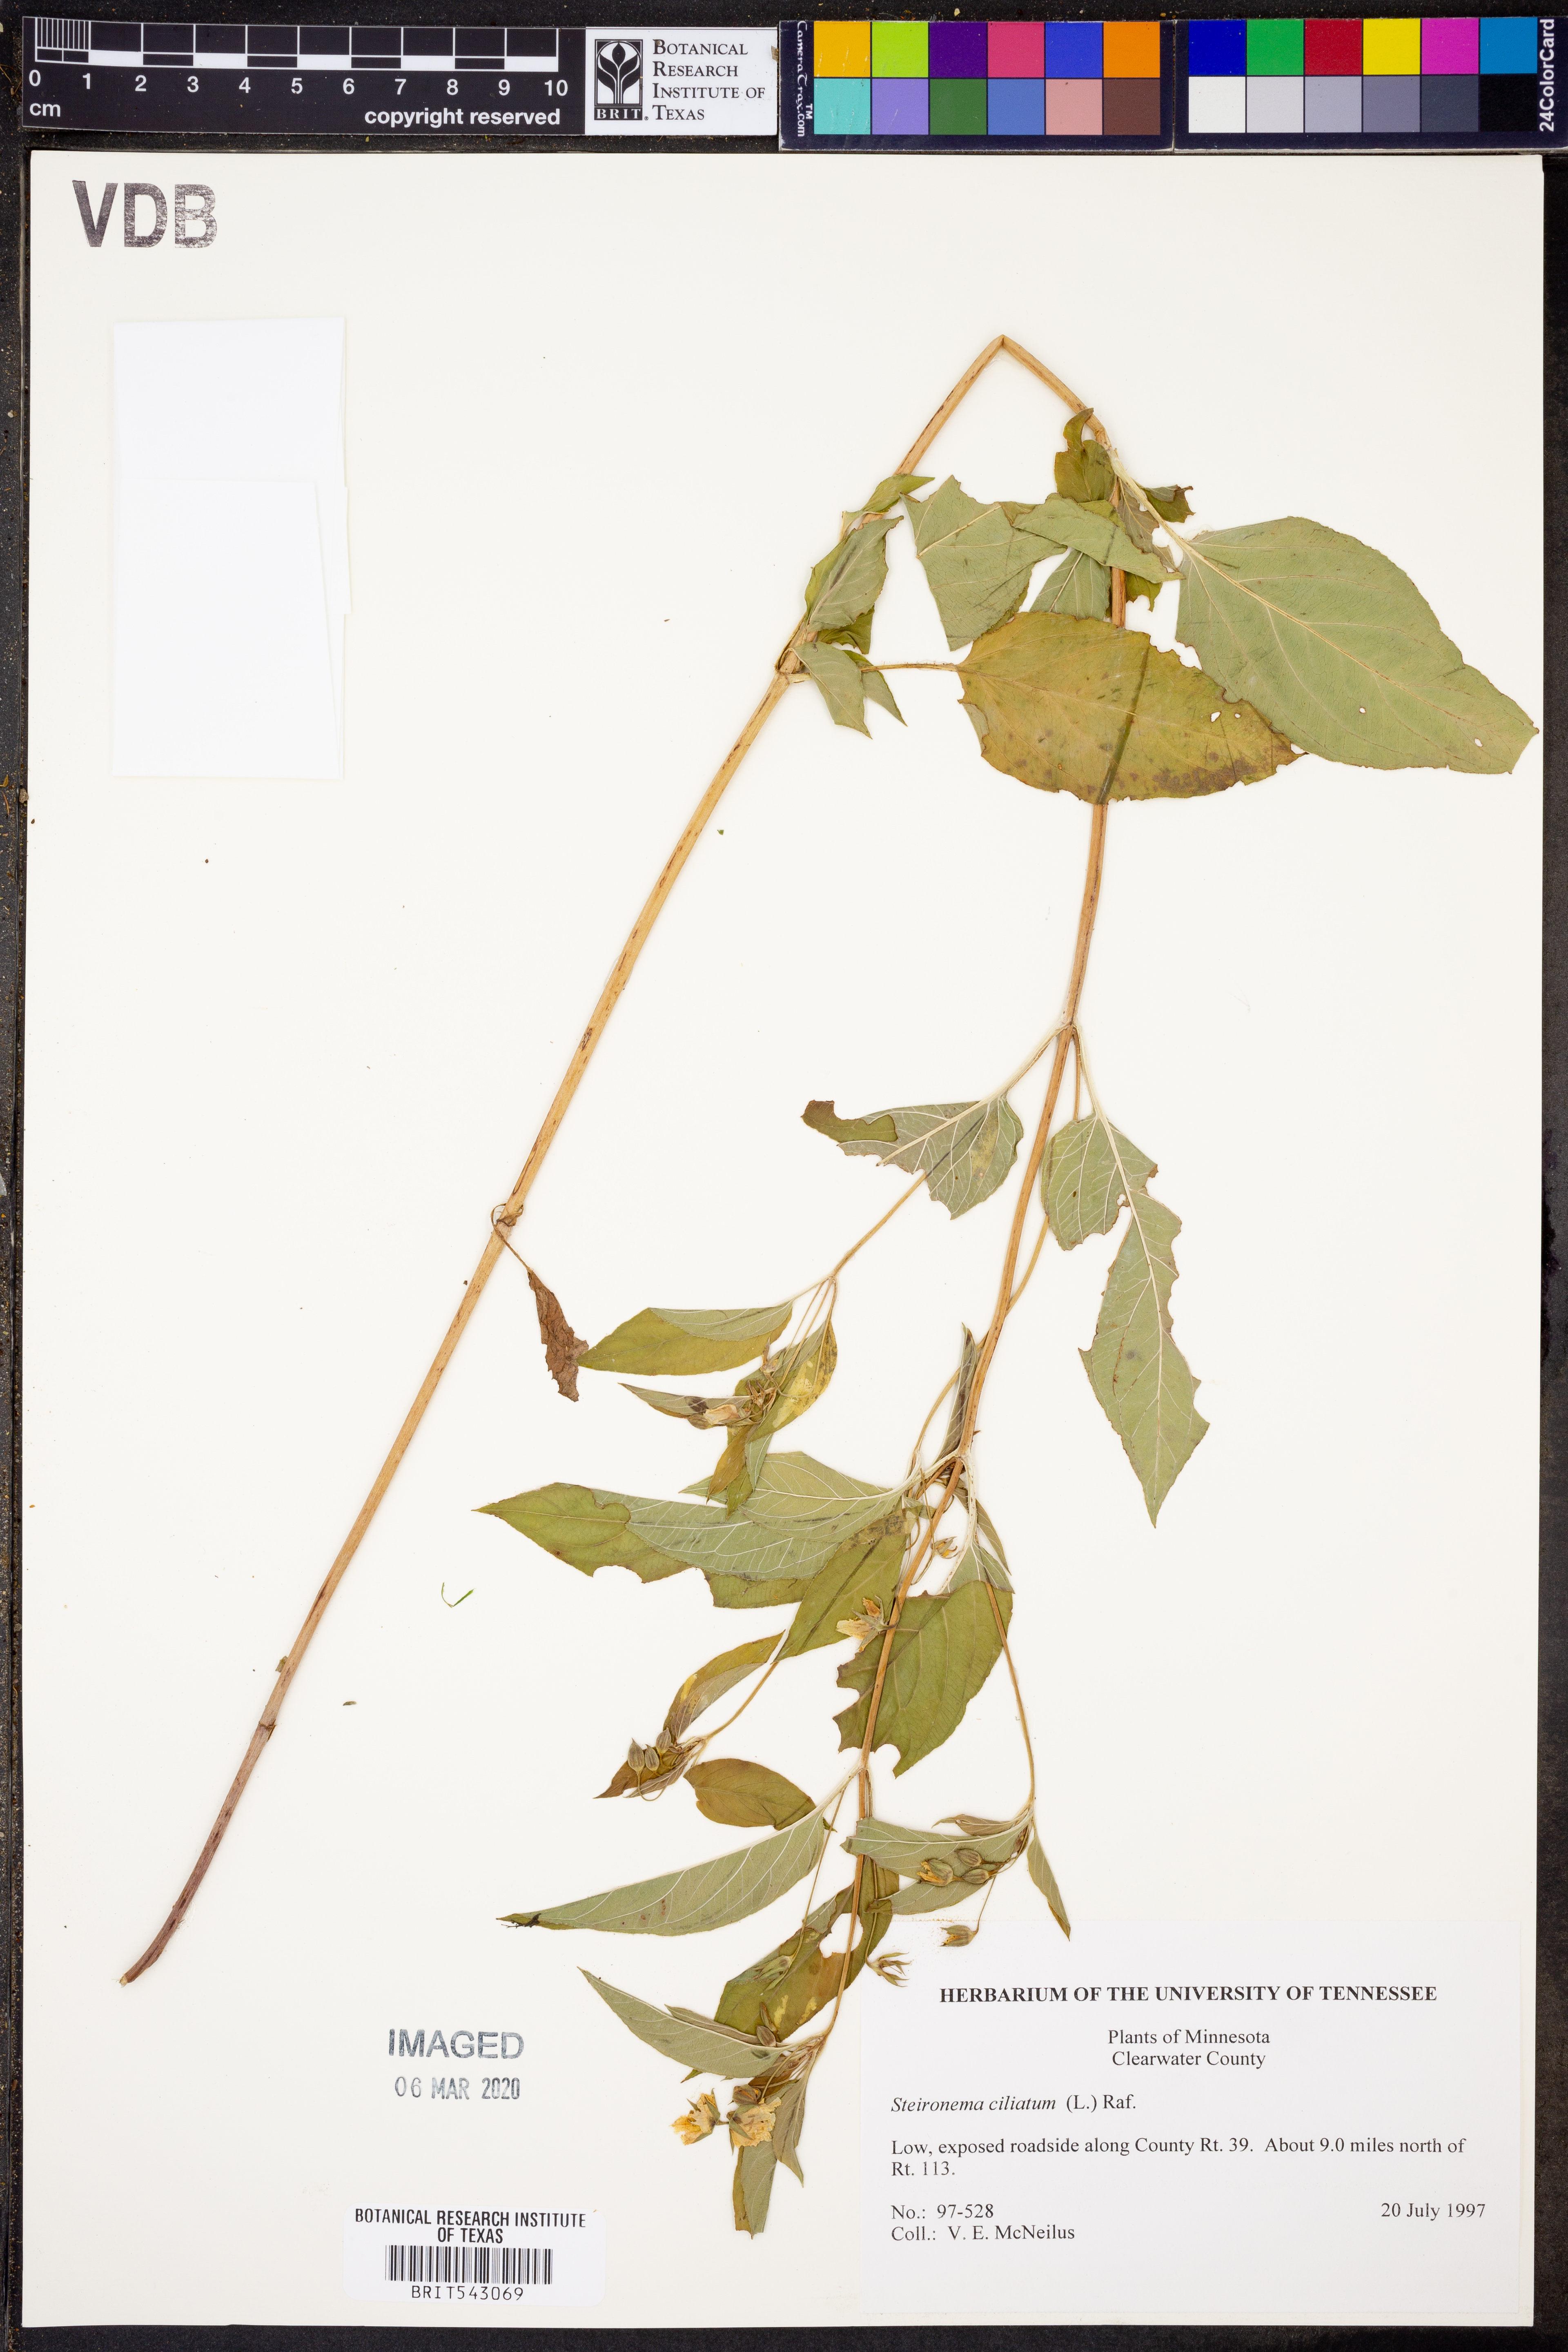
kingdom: Plantae
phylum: Tracheophyta
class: Magnoliopsida
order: Ericales
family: Primulaceae
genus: Lysimachia
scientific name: Lysimachia ciliata
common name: Fringed loosestrife
